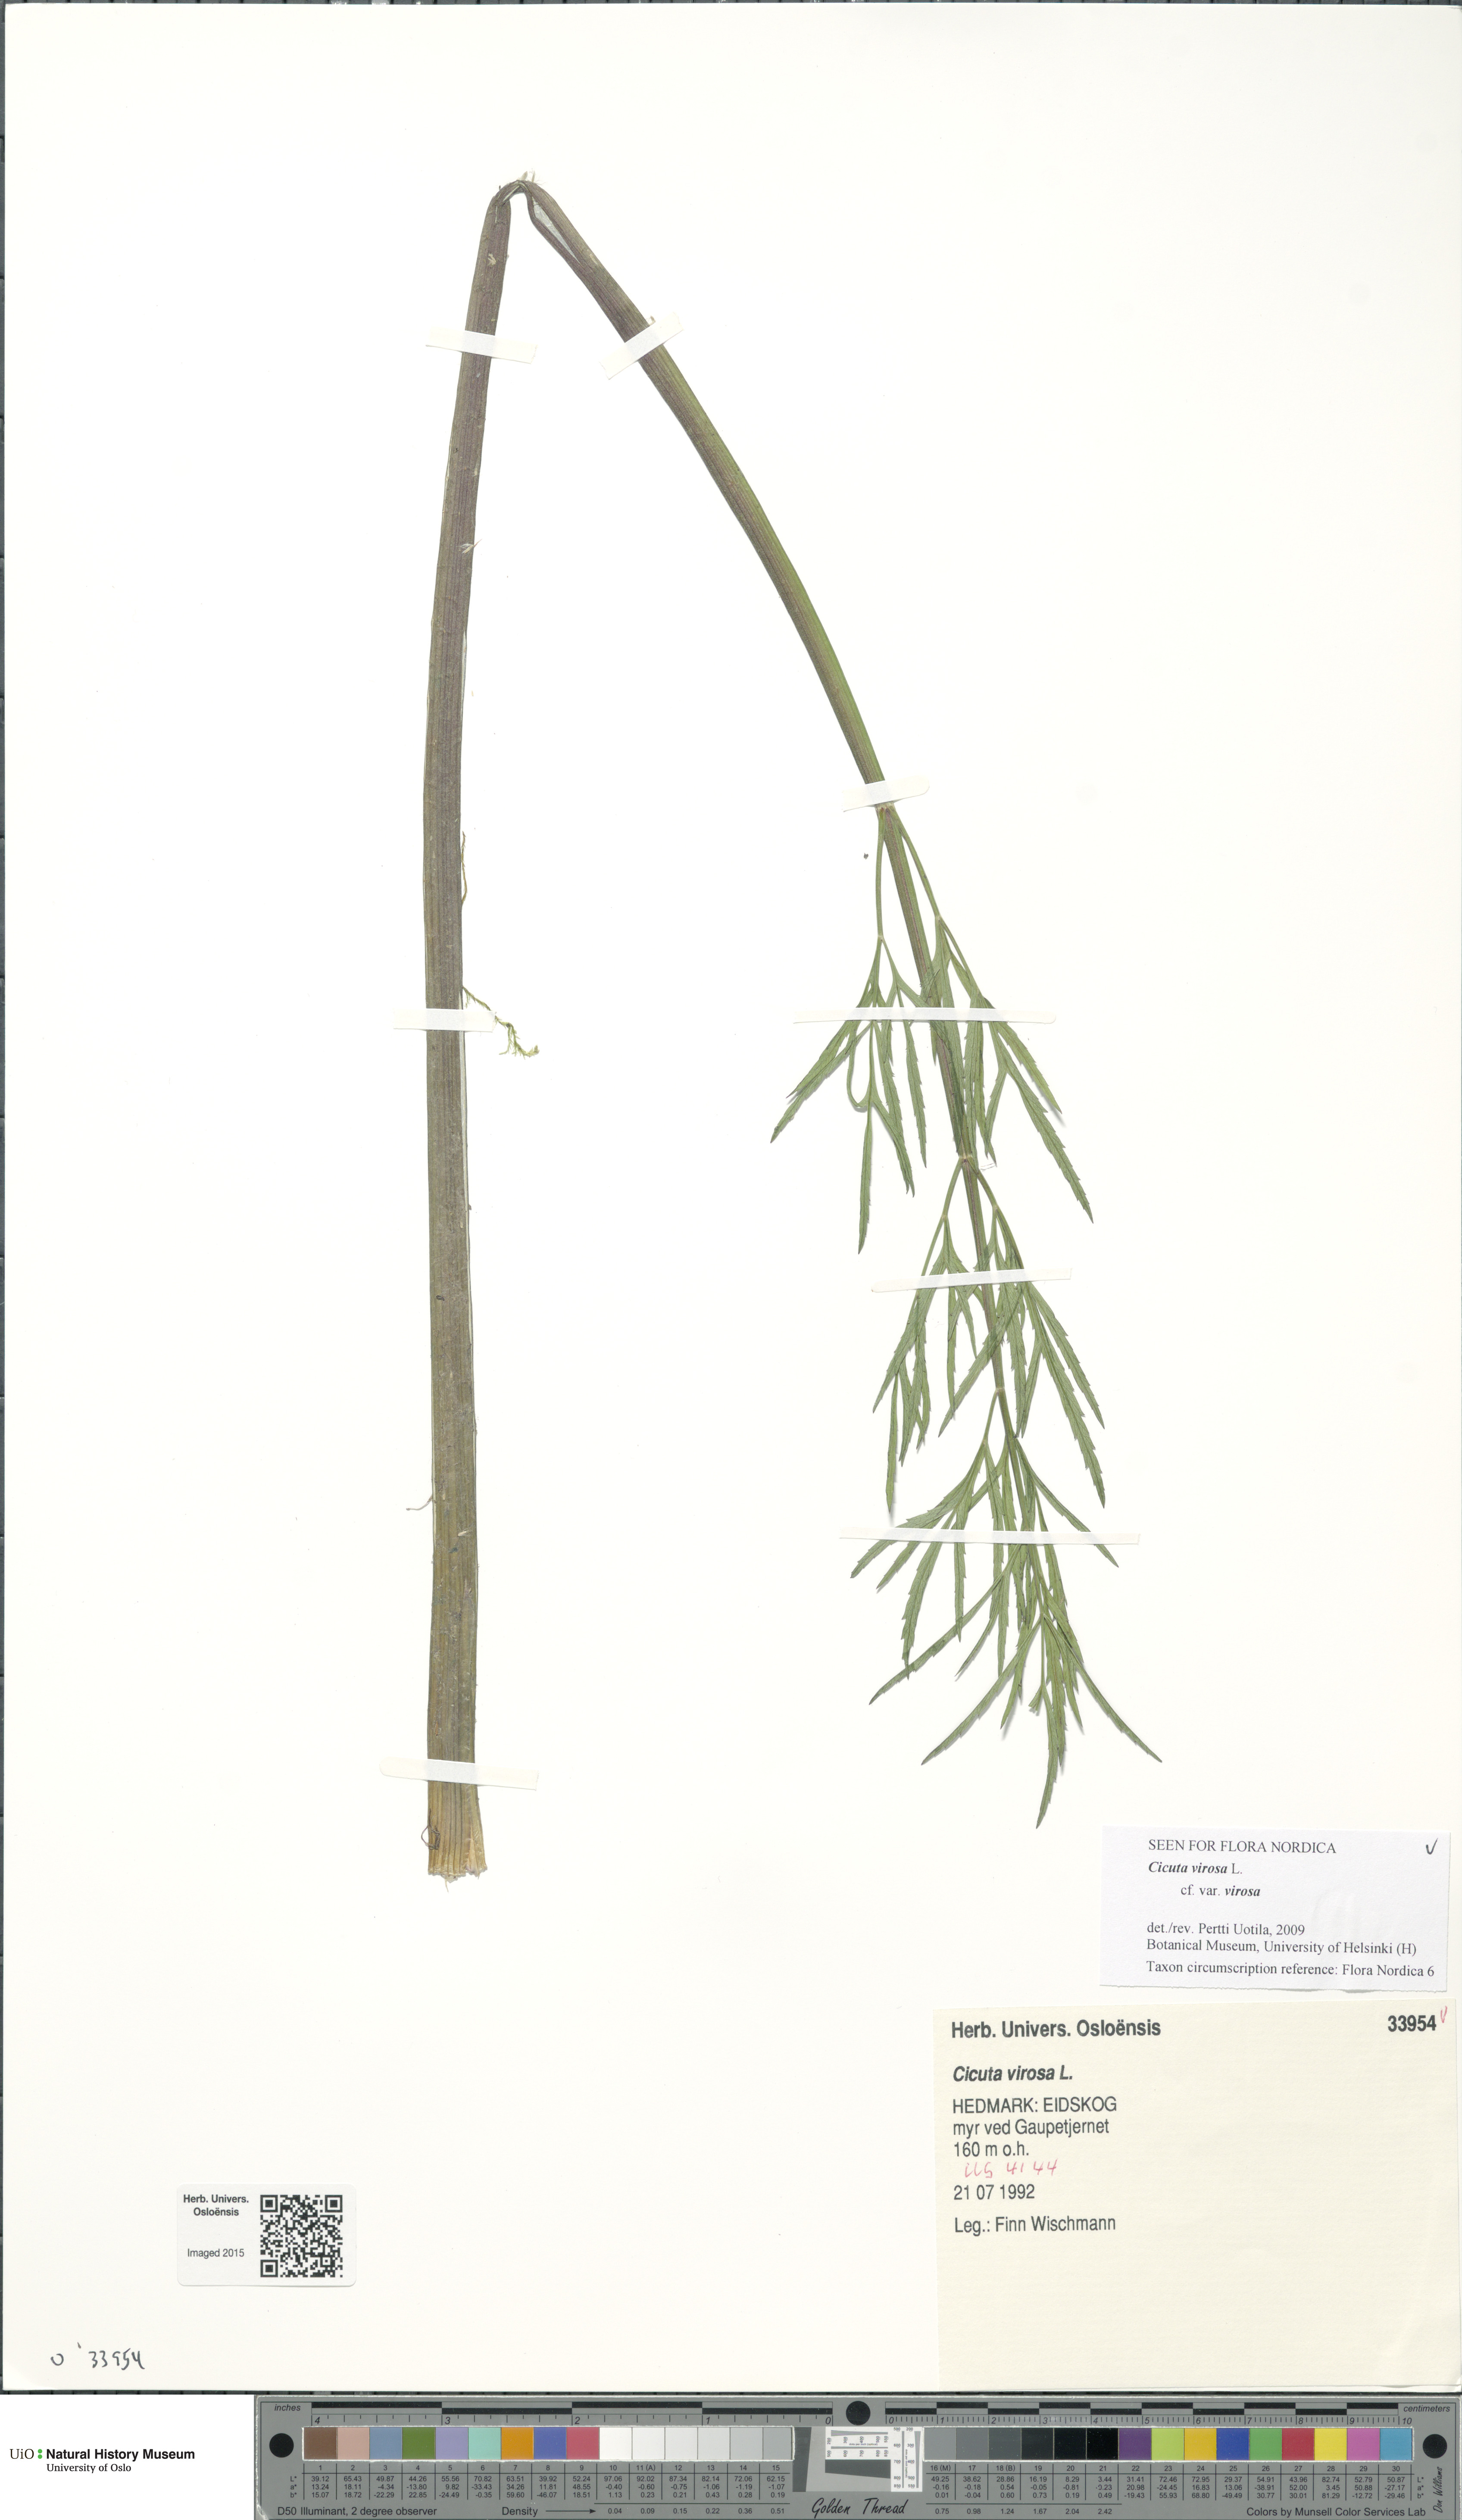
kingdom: Plantae
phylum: Tracheophyta
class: Magnoliopsida
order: Apiales
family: Apiaceae
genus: Cicuta
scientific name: Cicuta virosa
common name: Cowbane
